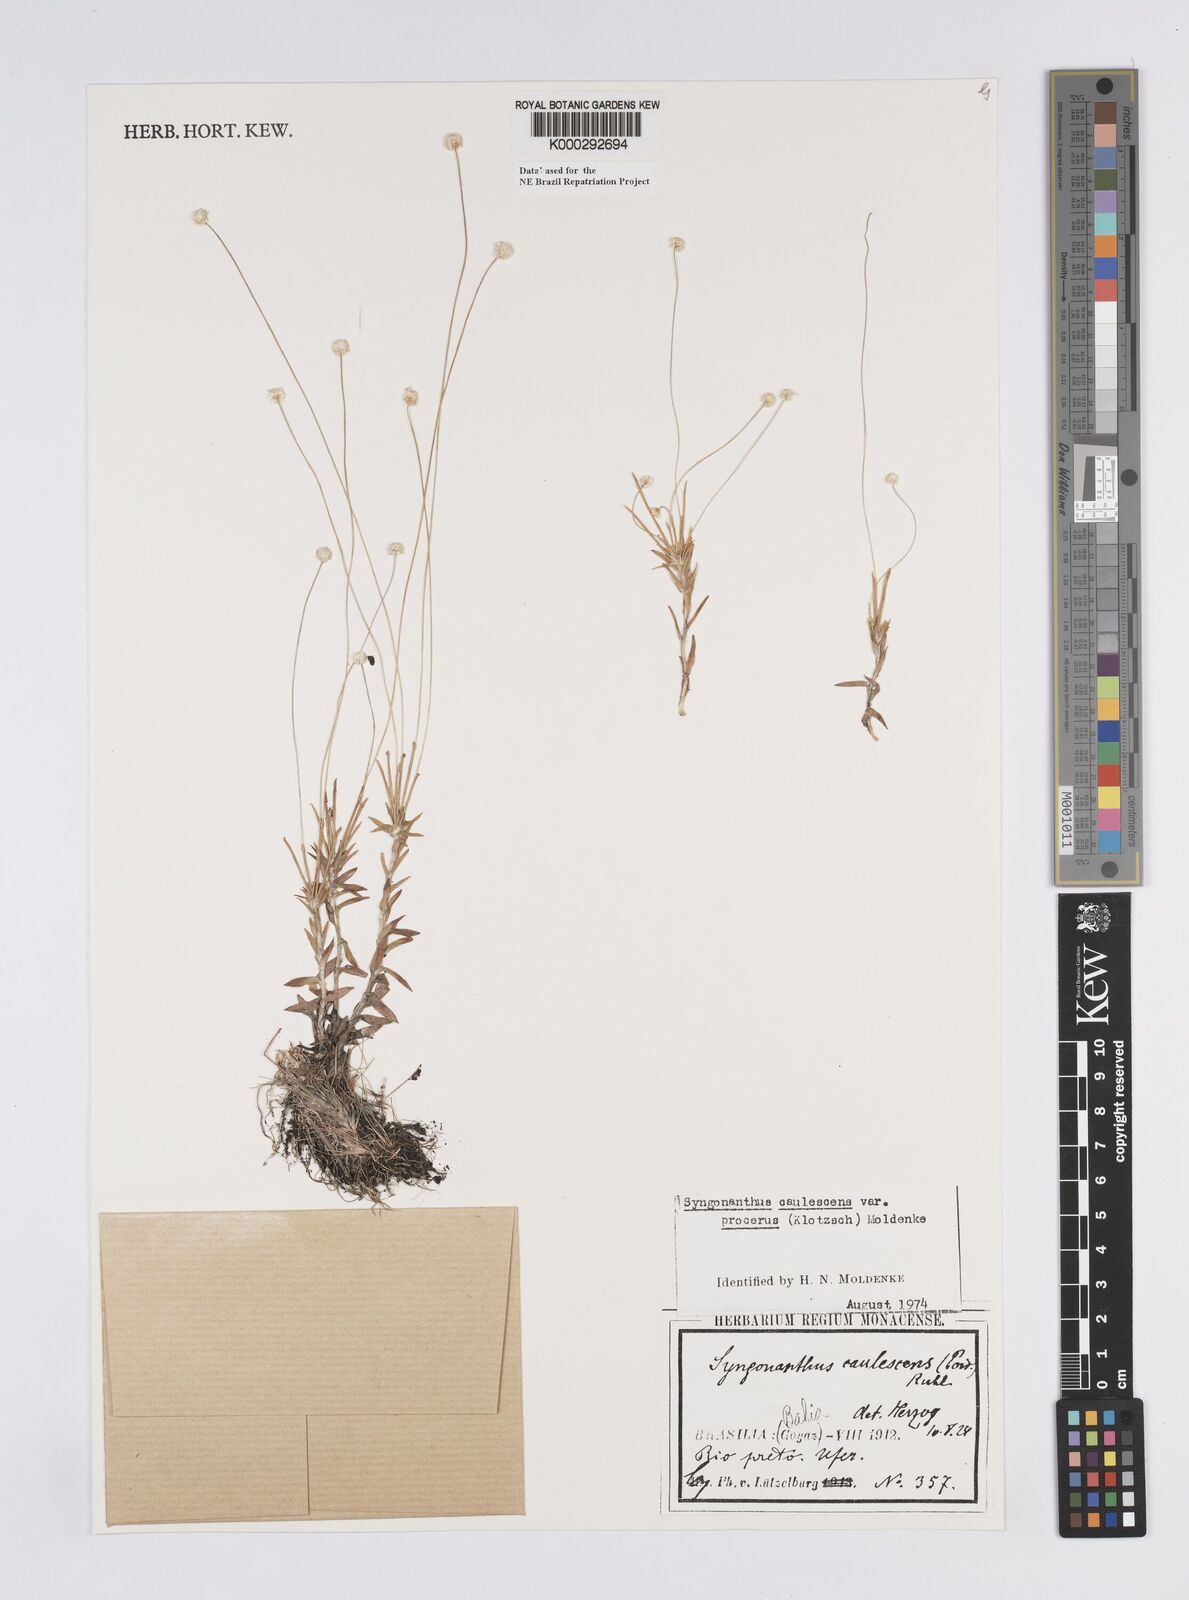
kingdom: Plantae
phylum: Tracheophyta
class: Liliopsida
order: Poales
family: Eriocaulaceae
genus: Syngonanthus
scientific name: Syngonanthus caulescens
